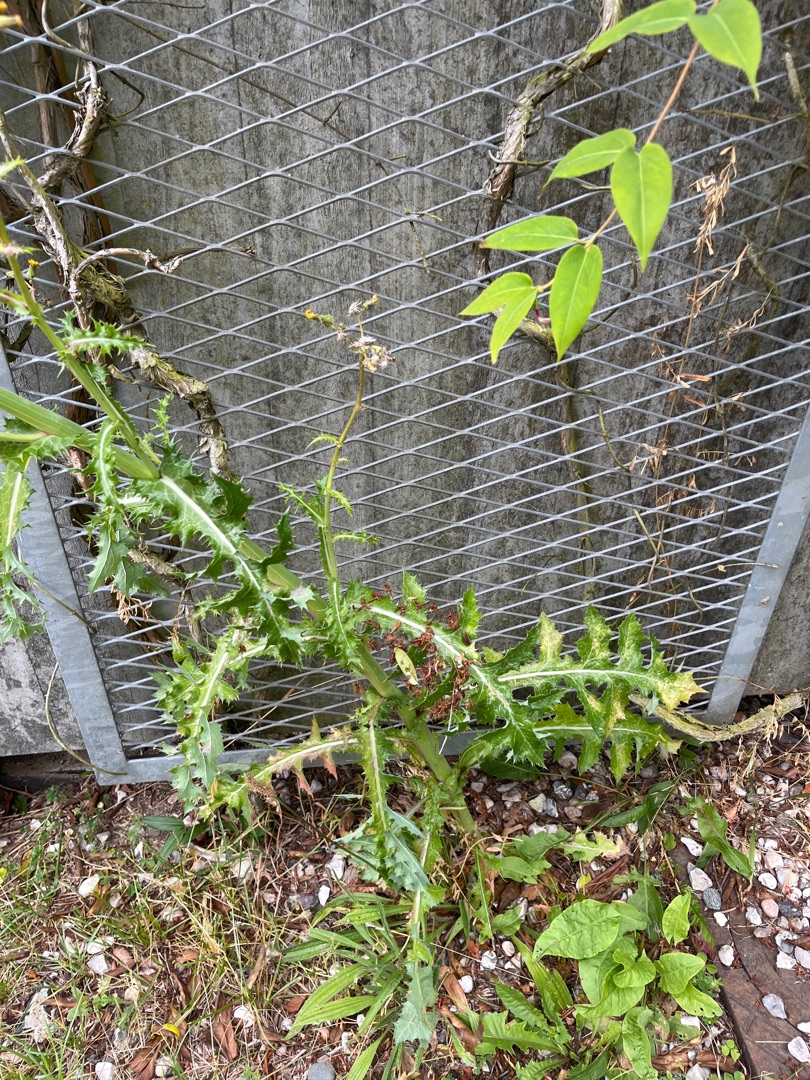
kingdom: Plantae
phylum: Tracheophyta
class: Magnoliopsida
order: Asterales
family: Asteraceae
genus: Sonchus
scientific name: Sonchus asper
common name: Ru svinemælk
